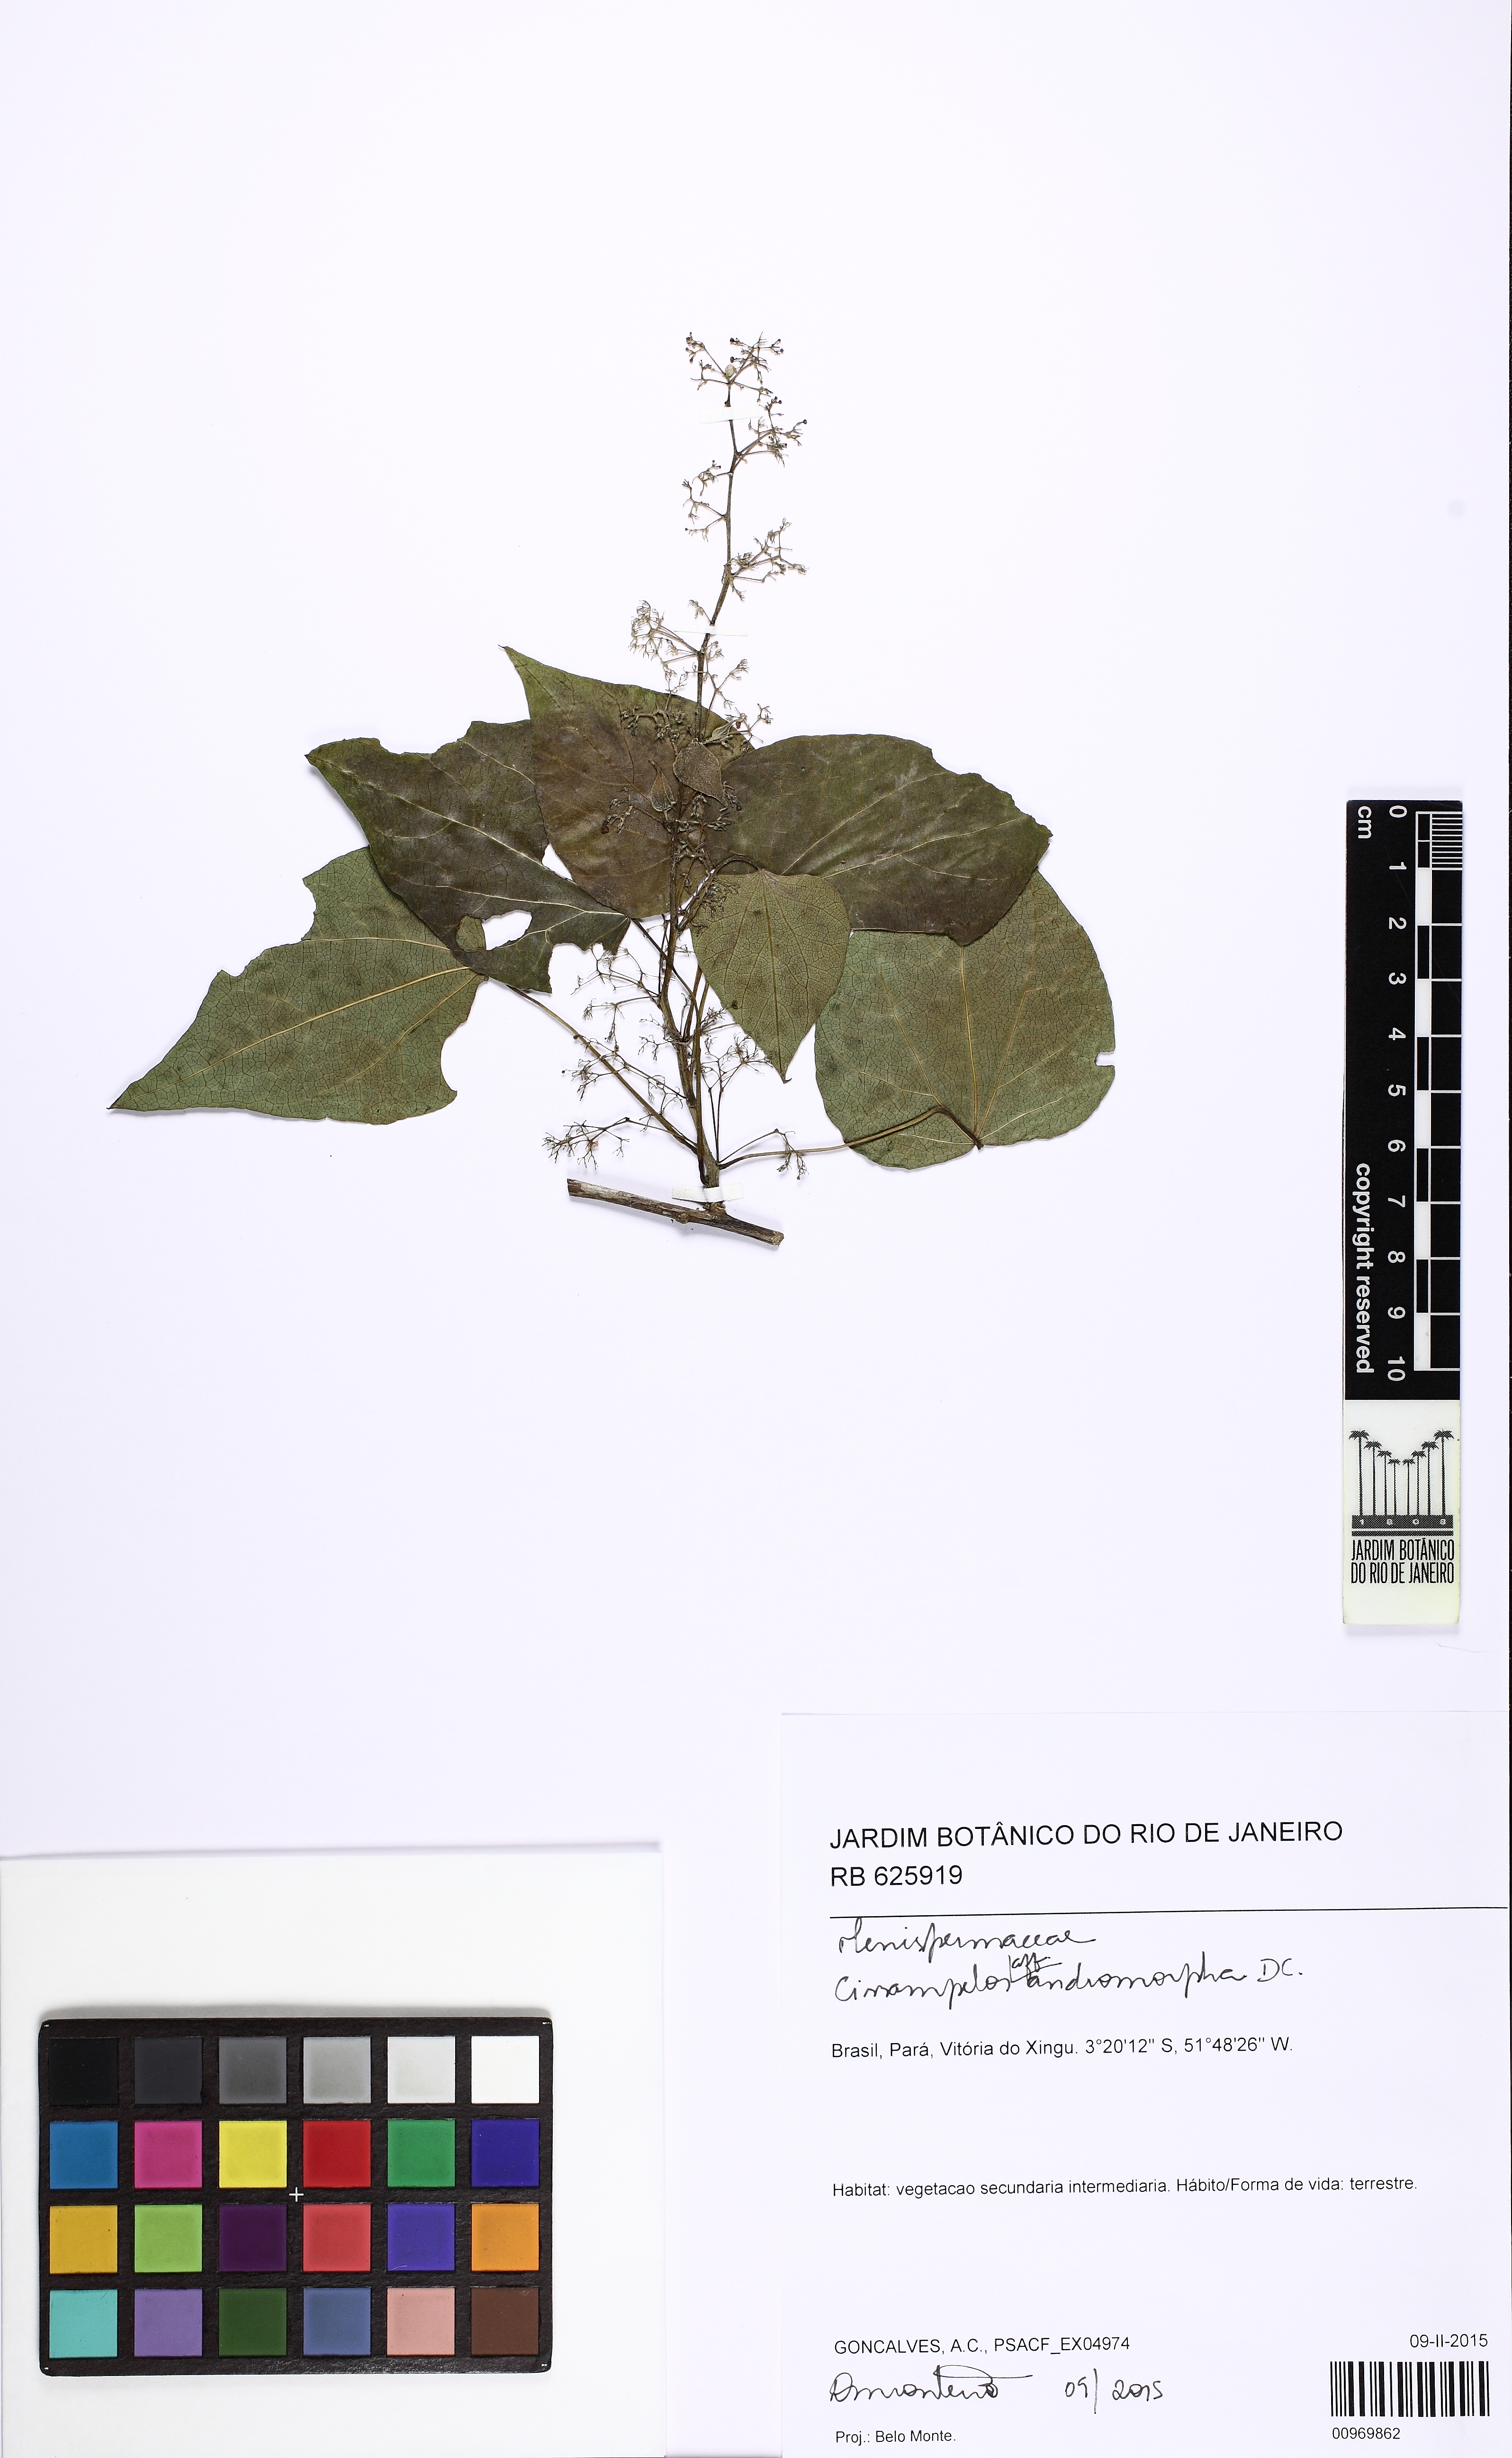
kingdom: Plantae
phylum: Tracheophyta
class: Magnoliopsida
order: Ranunculales
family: Menispermaceae
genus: Cissampelos
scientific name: Cissampelos andromorpha
